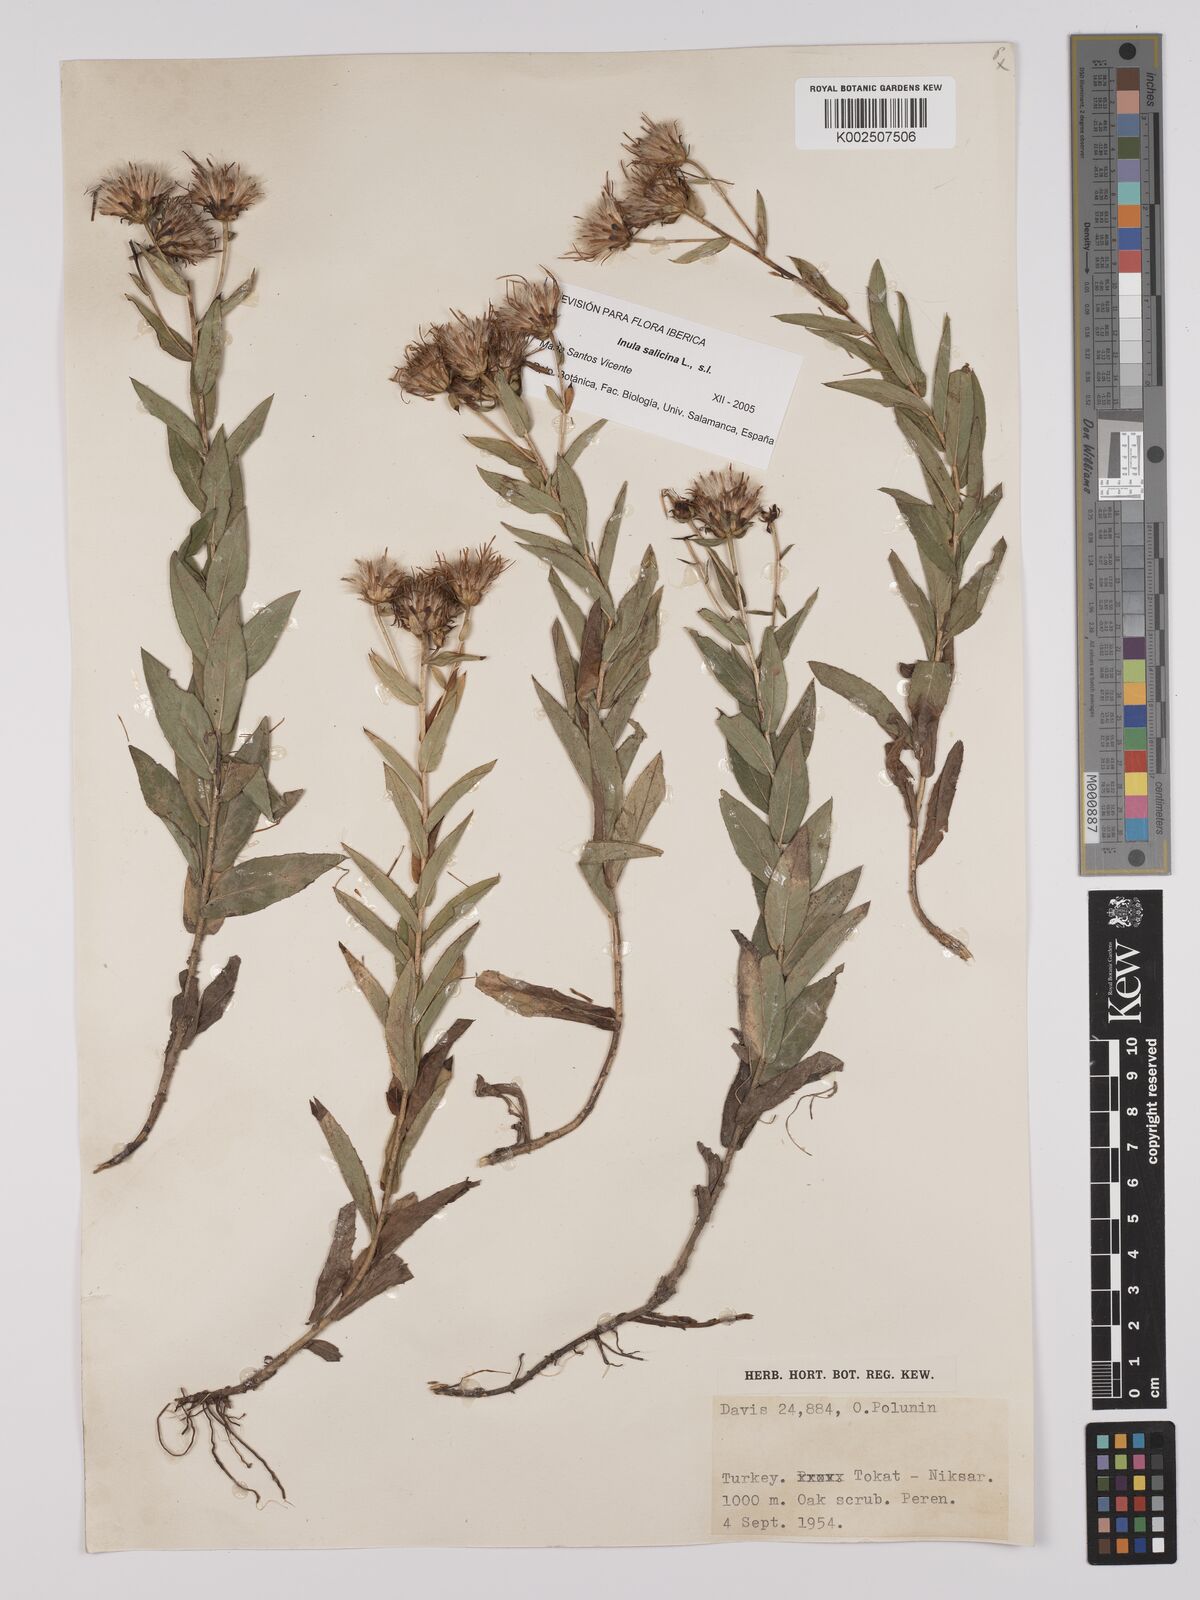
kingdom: Plantae
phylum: Tracheophyta
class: Magnoliopsida
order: Asterales
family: Asteraceae
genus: Pentanema
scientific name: Pentanema salicinum
